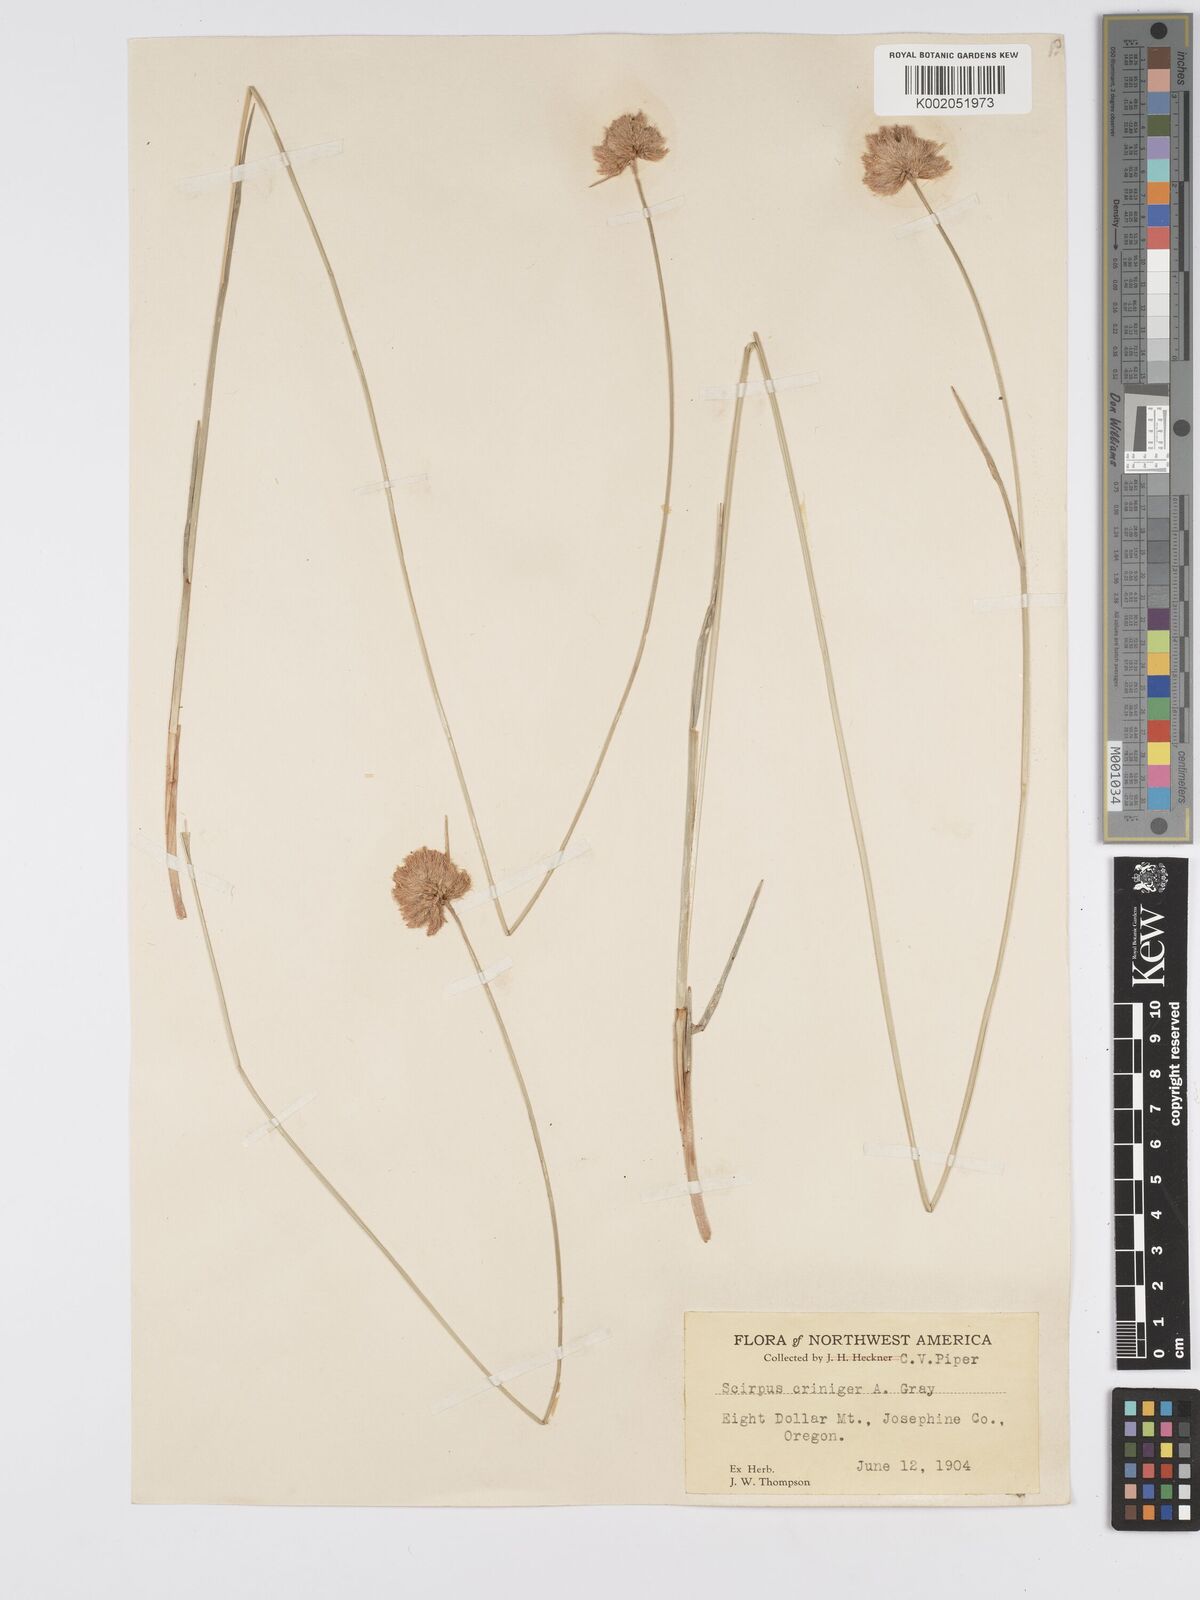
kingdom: Plantae
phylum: Tracheophyta
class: Liliopsida
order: Poales
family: Cyperaceae
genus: Calliscirpus
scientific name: Calliscirpus criniger
